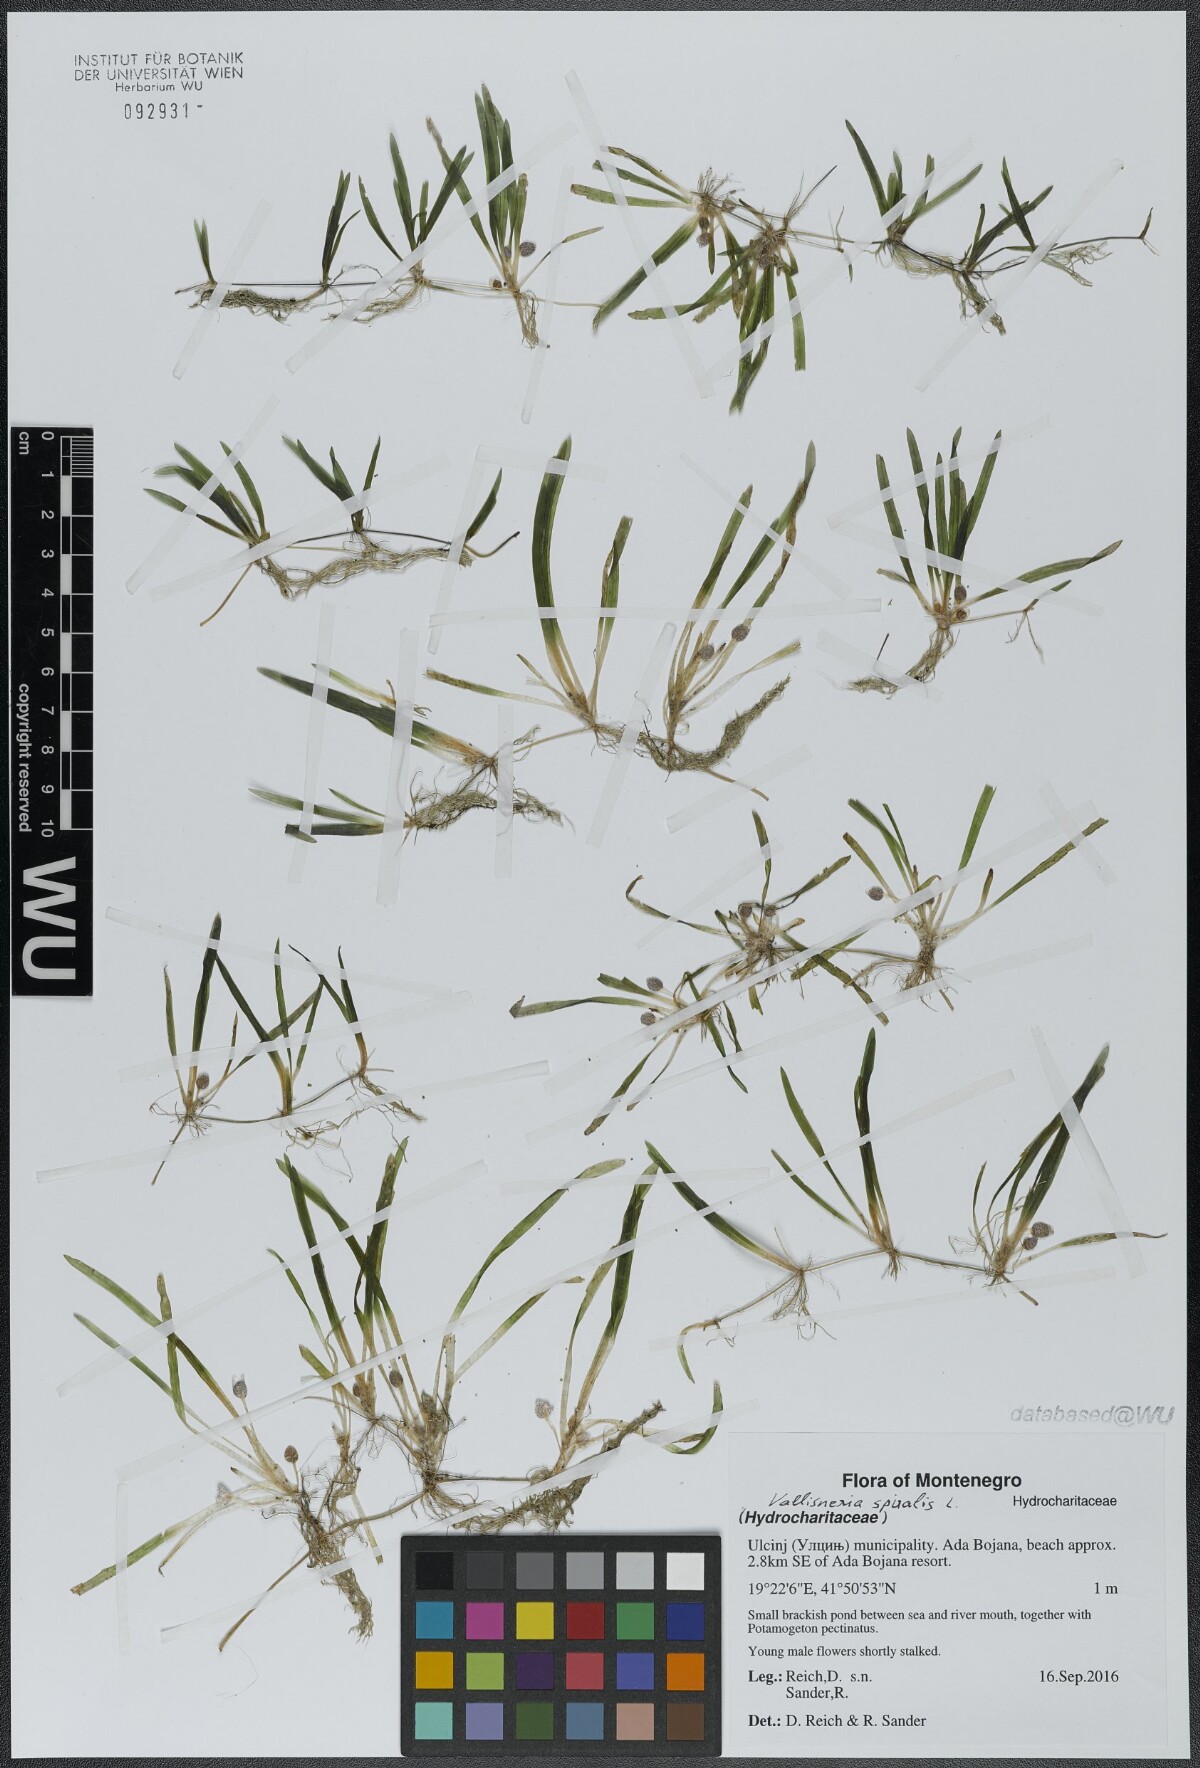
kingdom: Plantae
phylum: Tracheophyta
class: Liliopsida
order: Alismatales
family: Hydrocharitaceae
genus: Vallisneria
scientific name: Vallisneria spiralis
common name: Tapegrass
